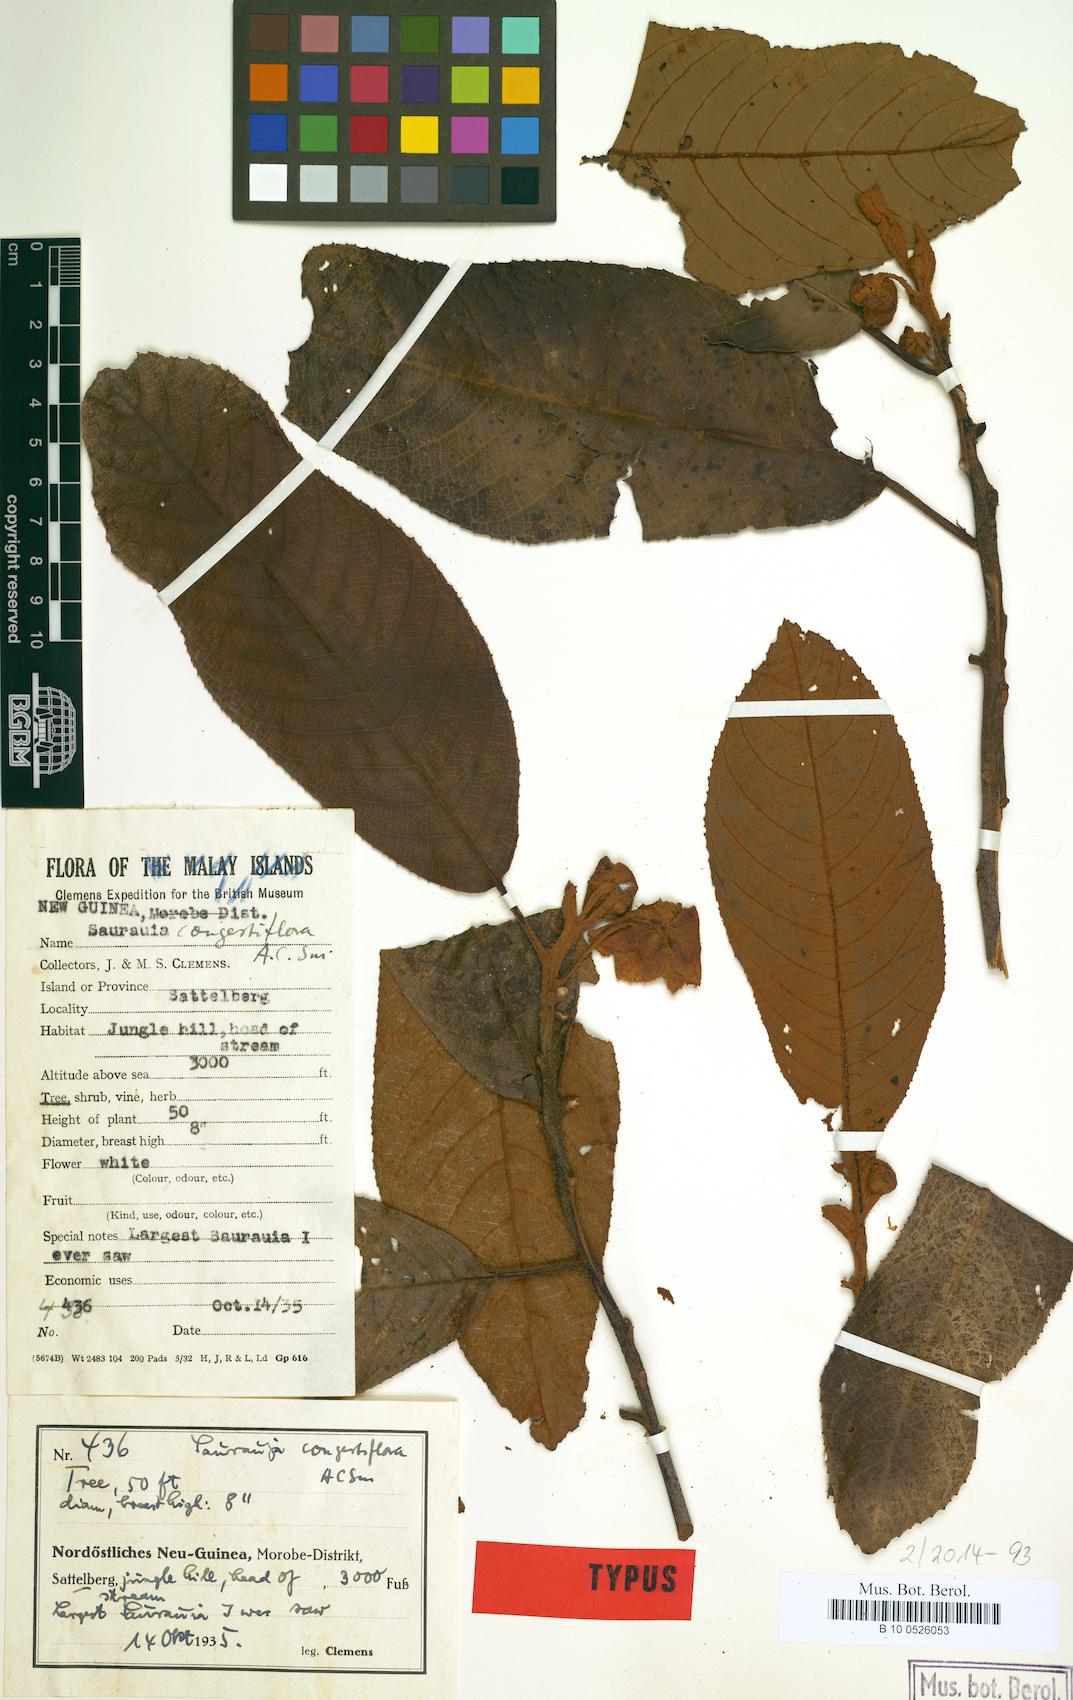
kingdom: Plantae
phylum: Tracheophyta
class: Magnoliopsida
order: Ericales
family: Actinidiaceae
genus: Saurauia
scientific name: Saurauia congestiflora
